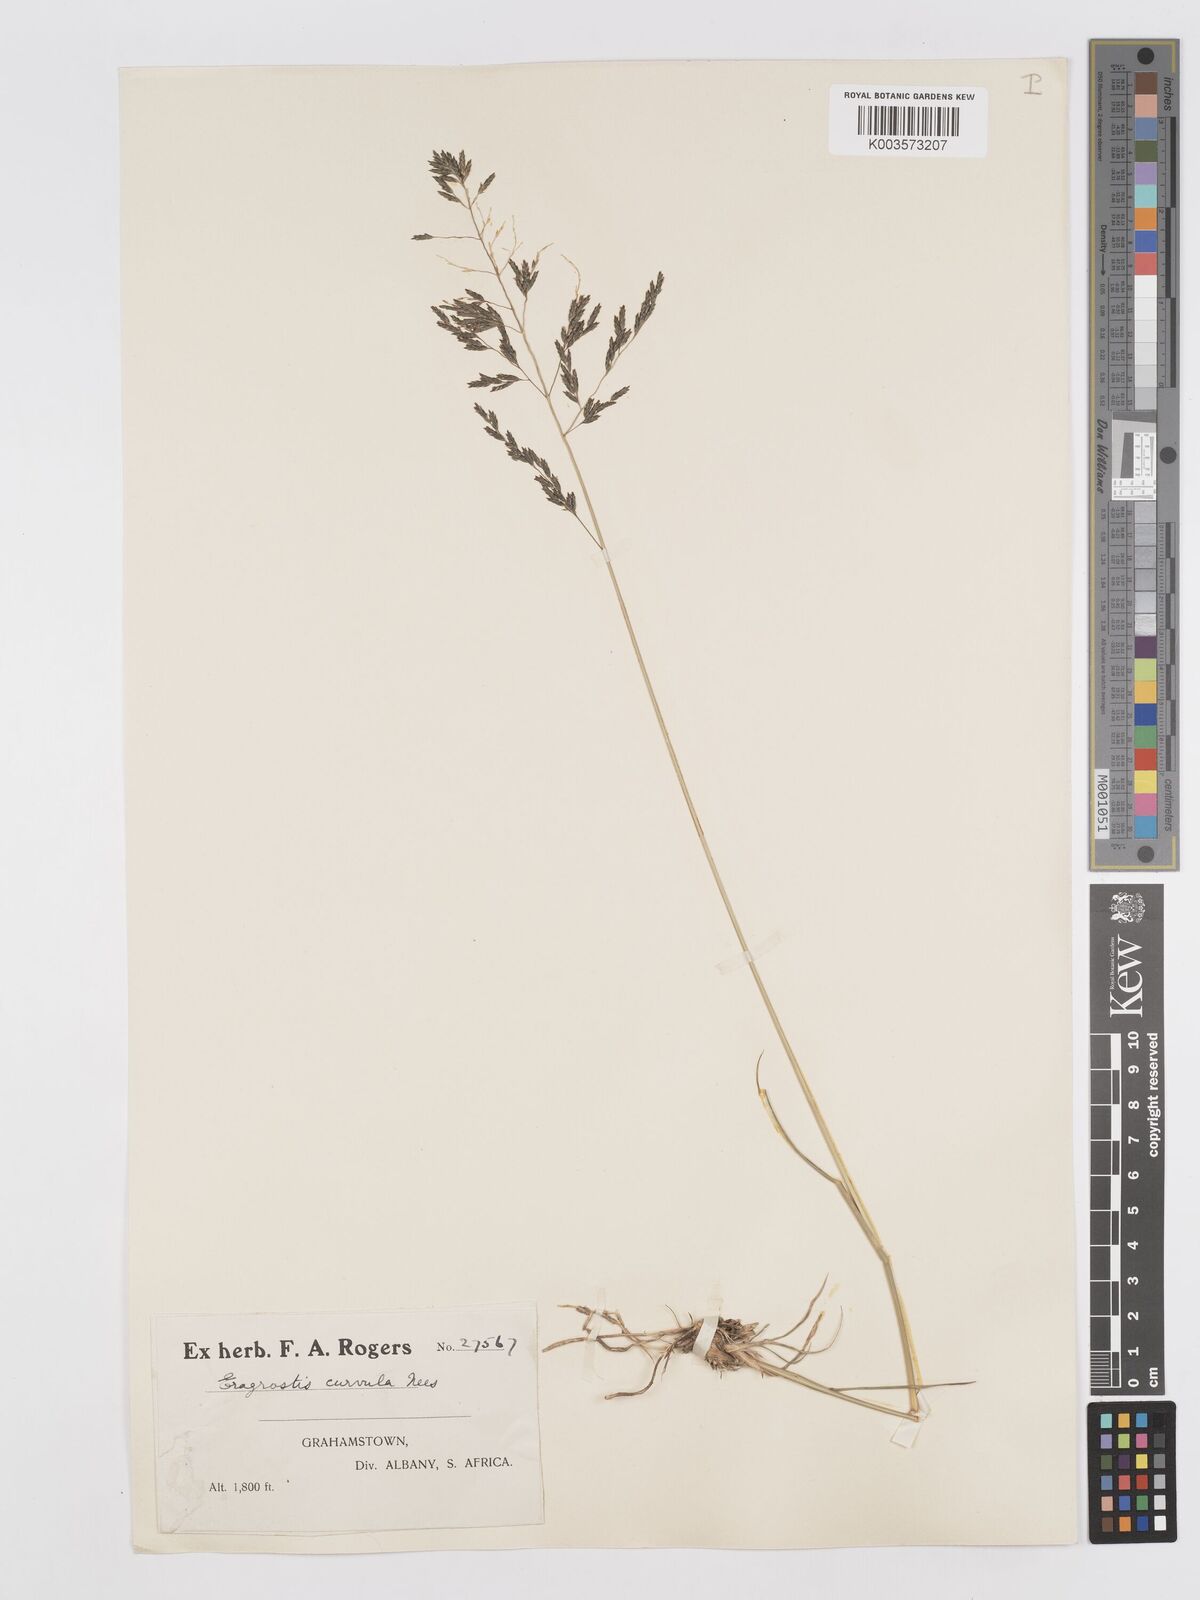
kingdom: Plantae
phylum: Tracheophyta
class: Liliopsida
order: Poales
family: Poaceae
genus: Eragrostis
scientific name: Eragrostis curvula
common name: African love-grass
